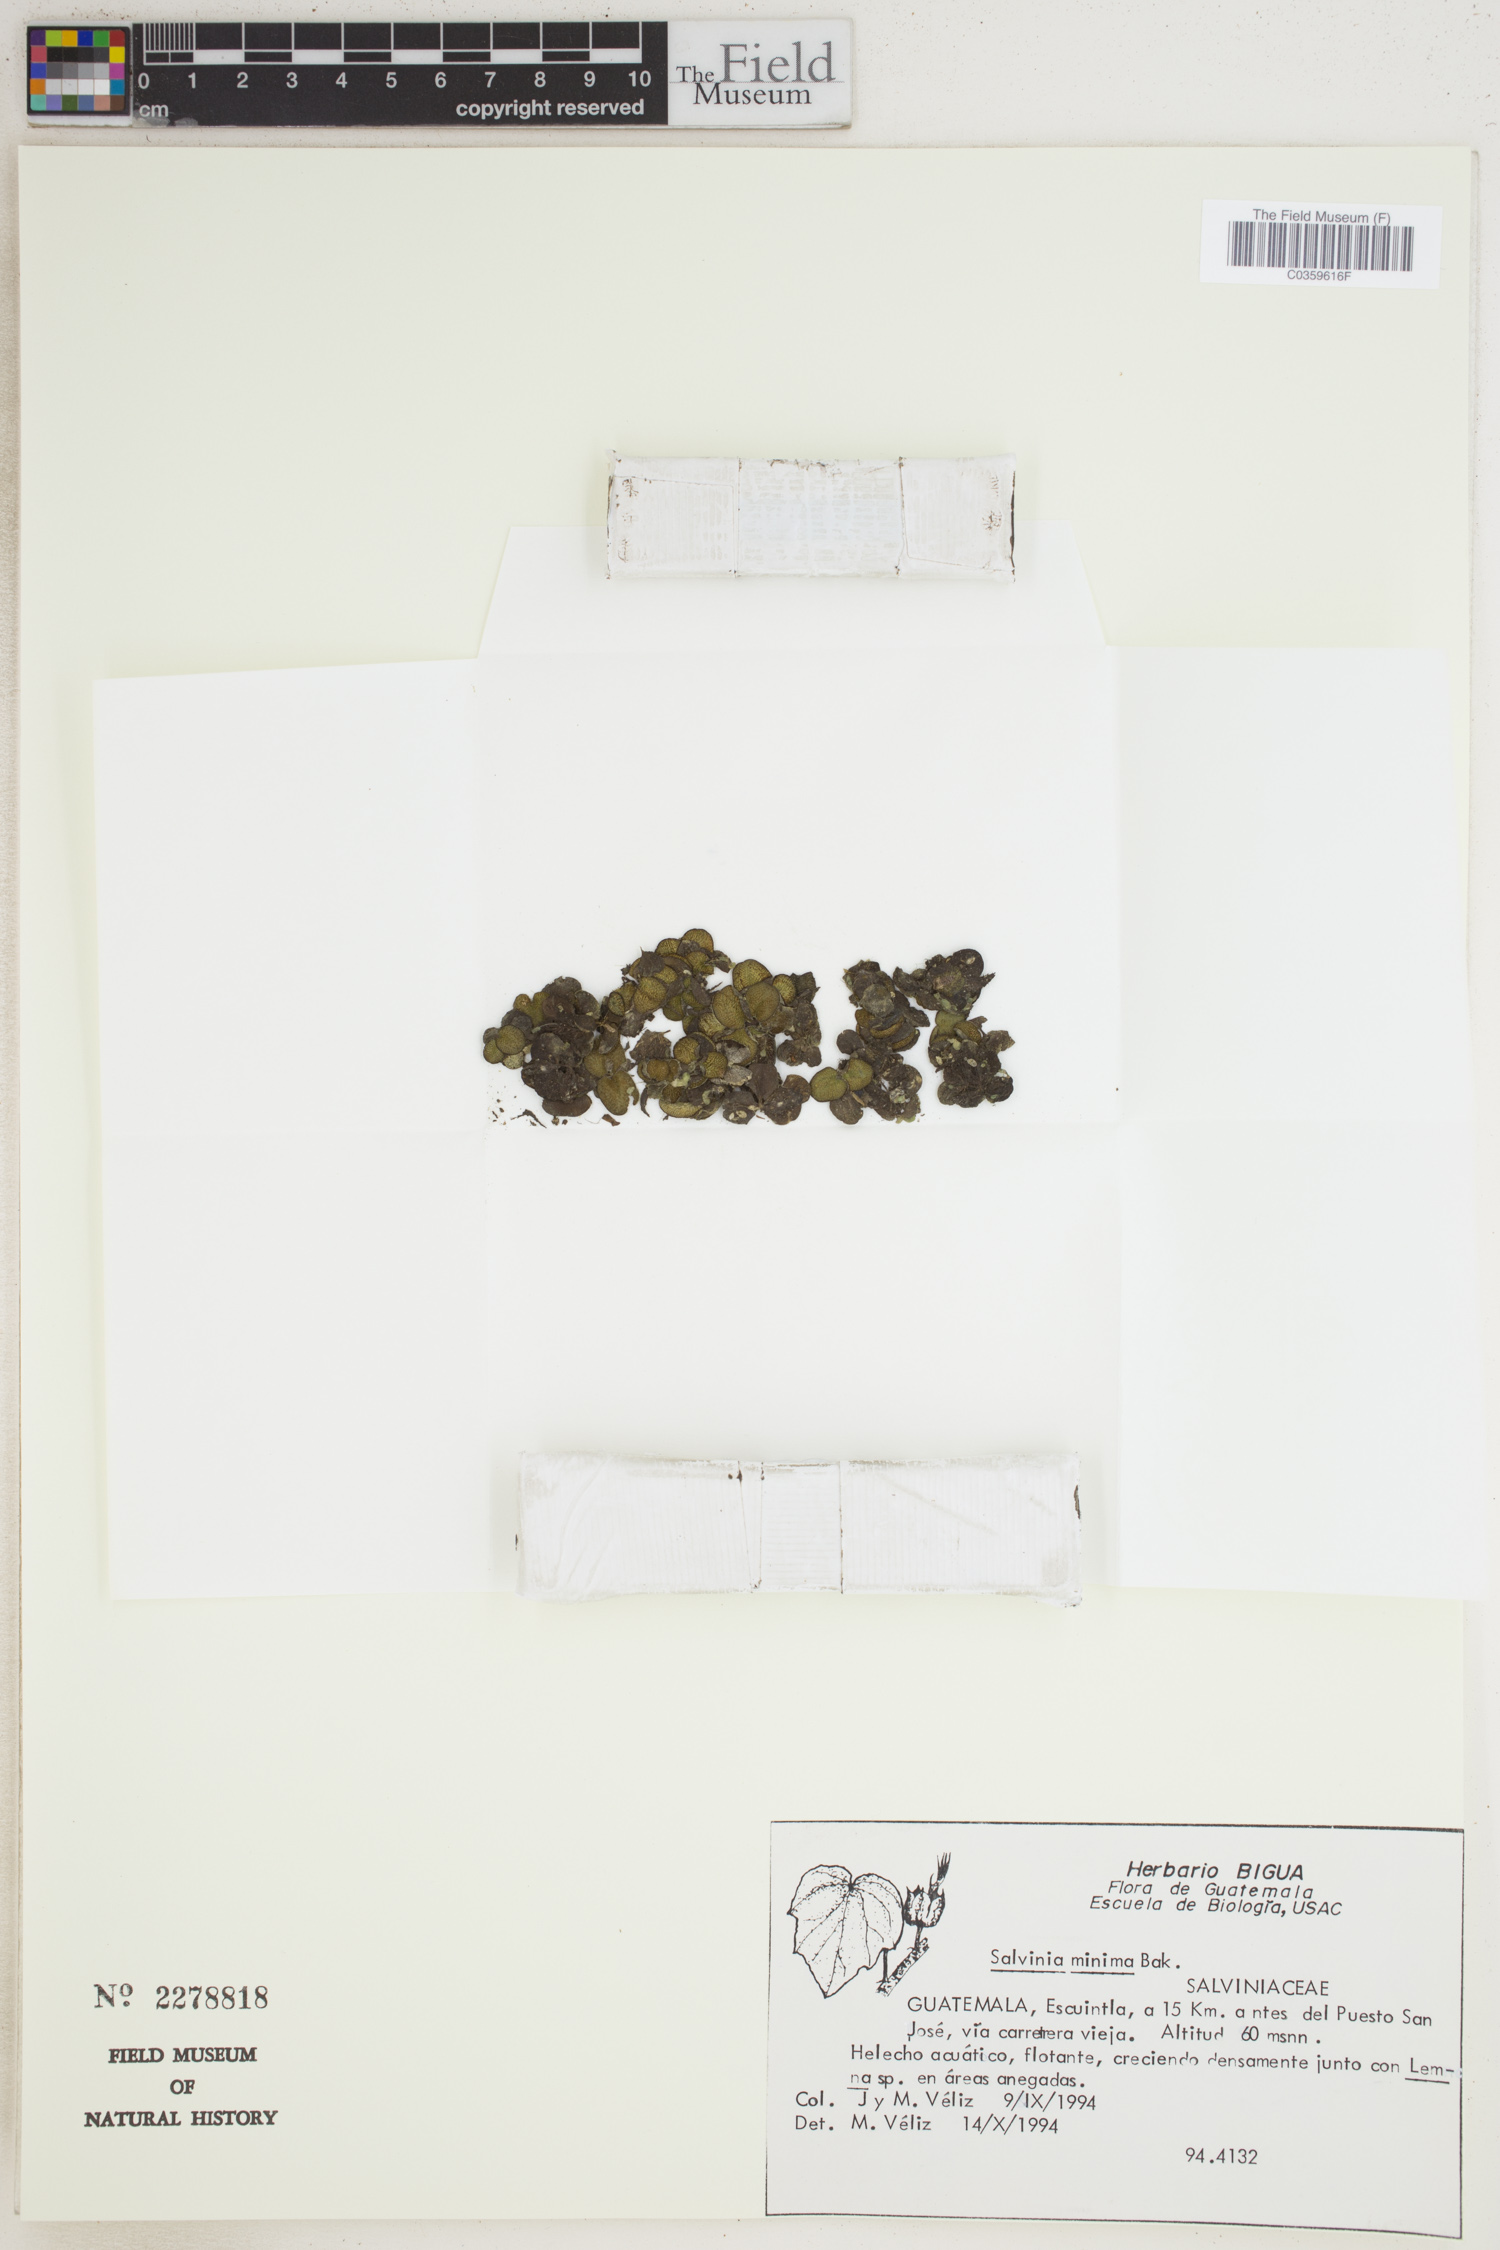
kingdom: Plantae
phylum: Tracheophyta
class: Polypodiopsida
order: Salviniales
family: Salviniaceae
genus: Salvinia
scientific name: Salvinia minima
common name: Water spangles
